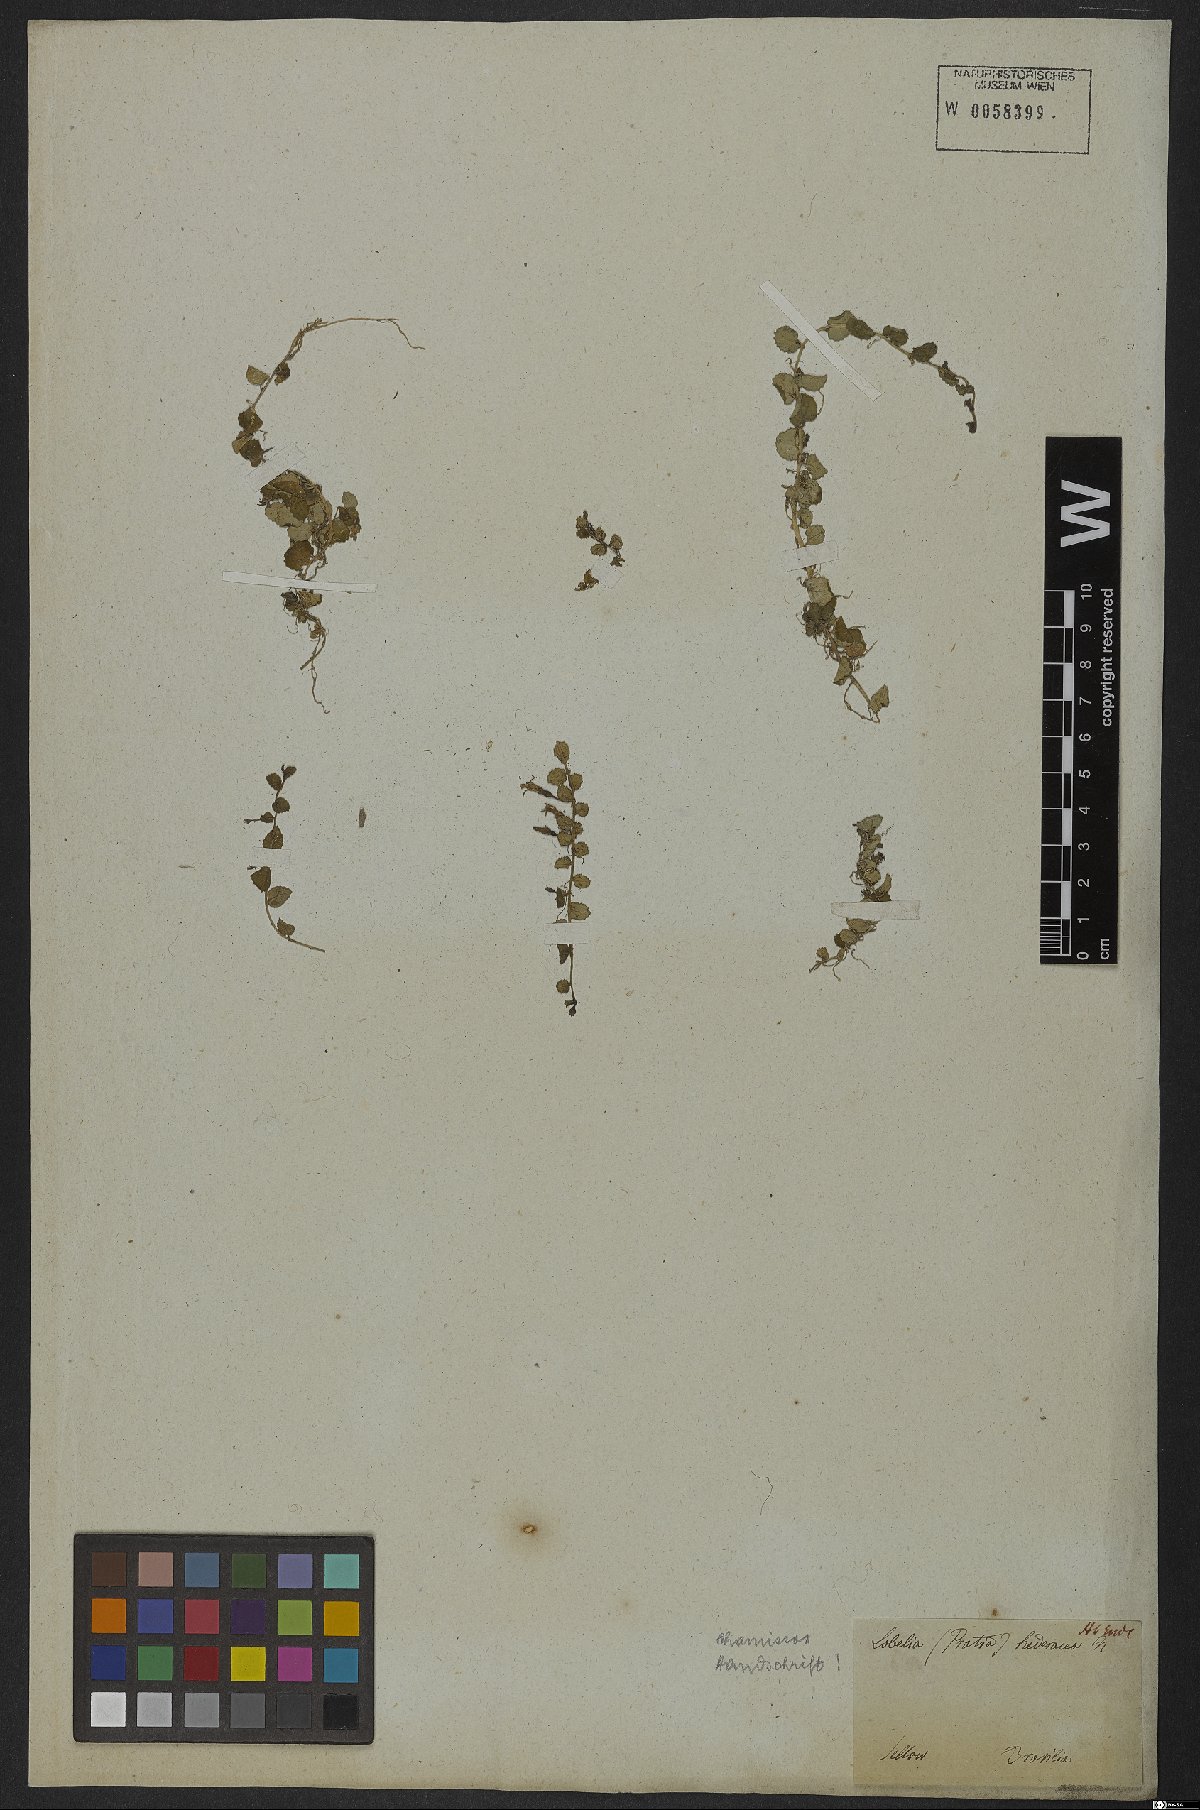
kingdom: Plantae
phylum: Tracheophyta
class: Magnoliopsida
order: Asterales
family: Campanulaceae
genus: Lobelia
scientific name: Lobelia hederacea
